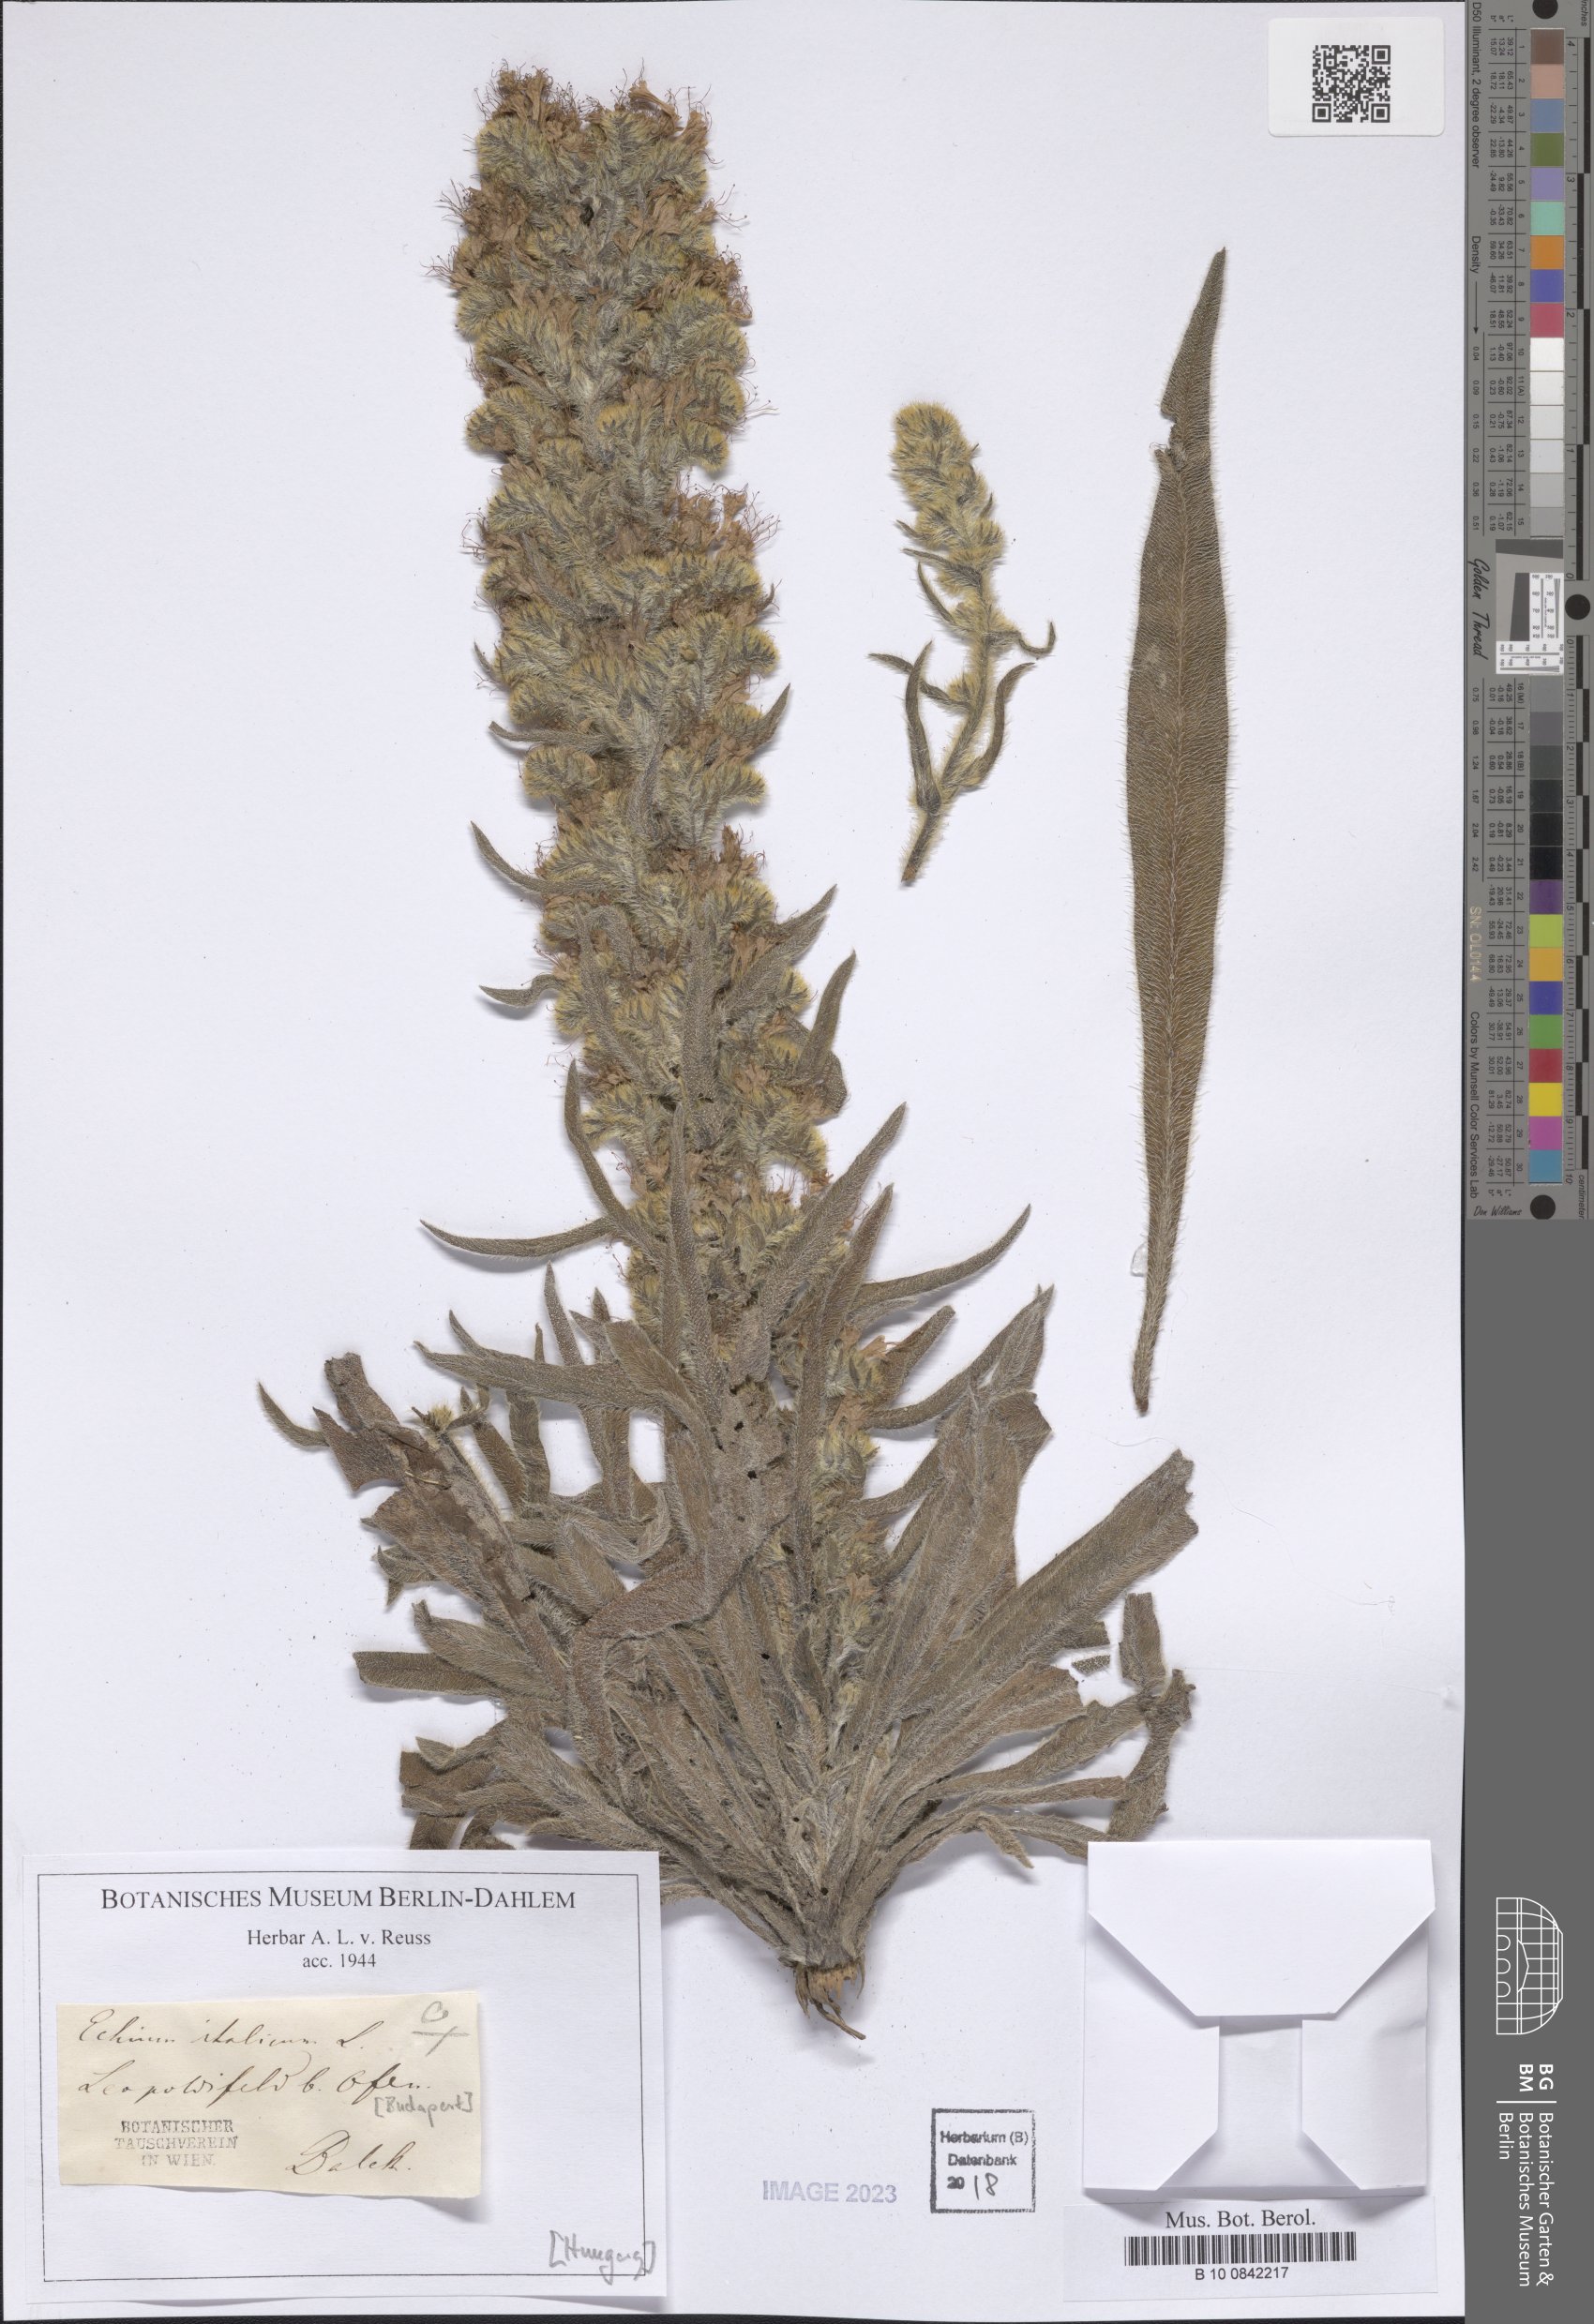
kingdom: Plantae
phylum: Tracheophyta
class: Magnoliopsida
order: Boraginales
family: Boraginaceae
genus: Echium
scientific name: Echium italicum
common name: Italian viper's bugloss
